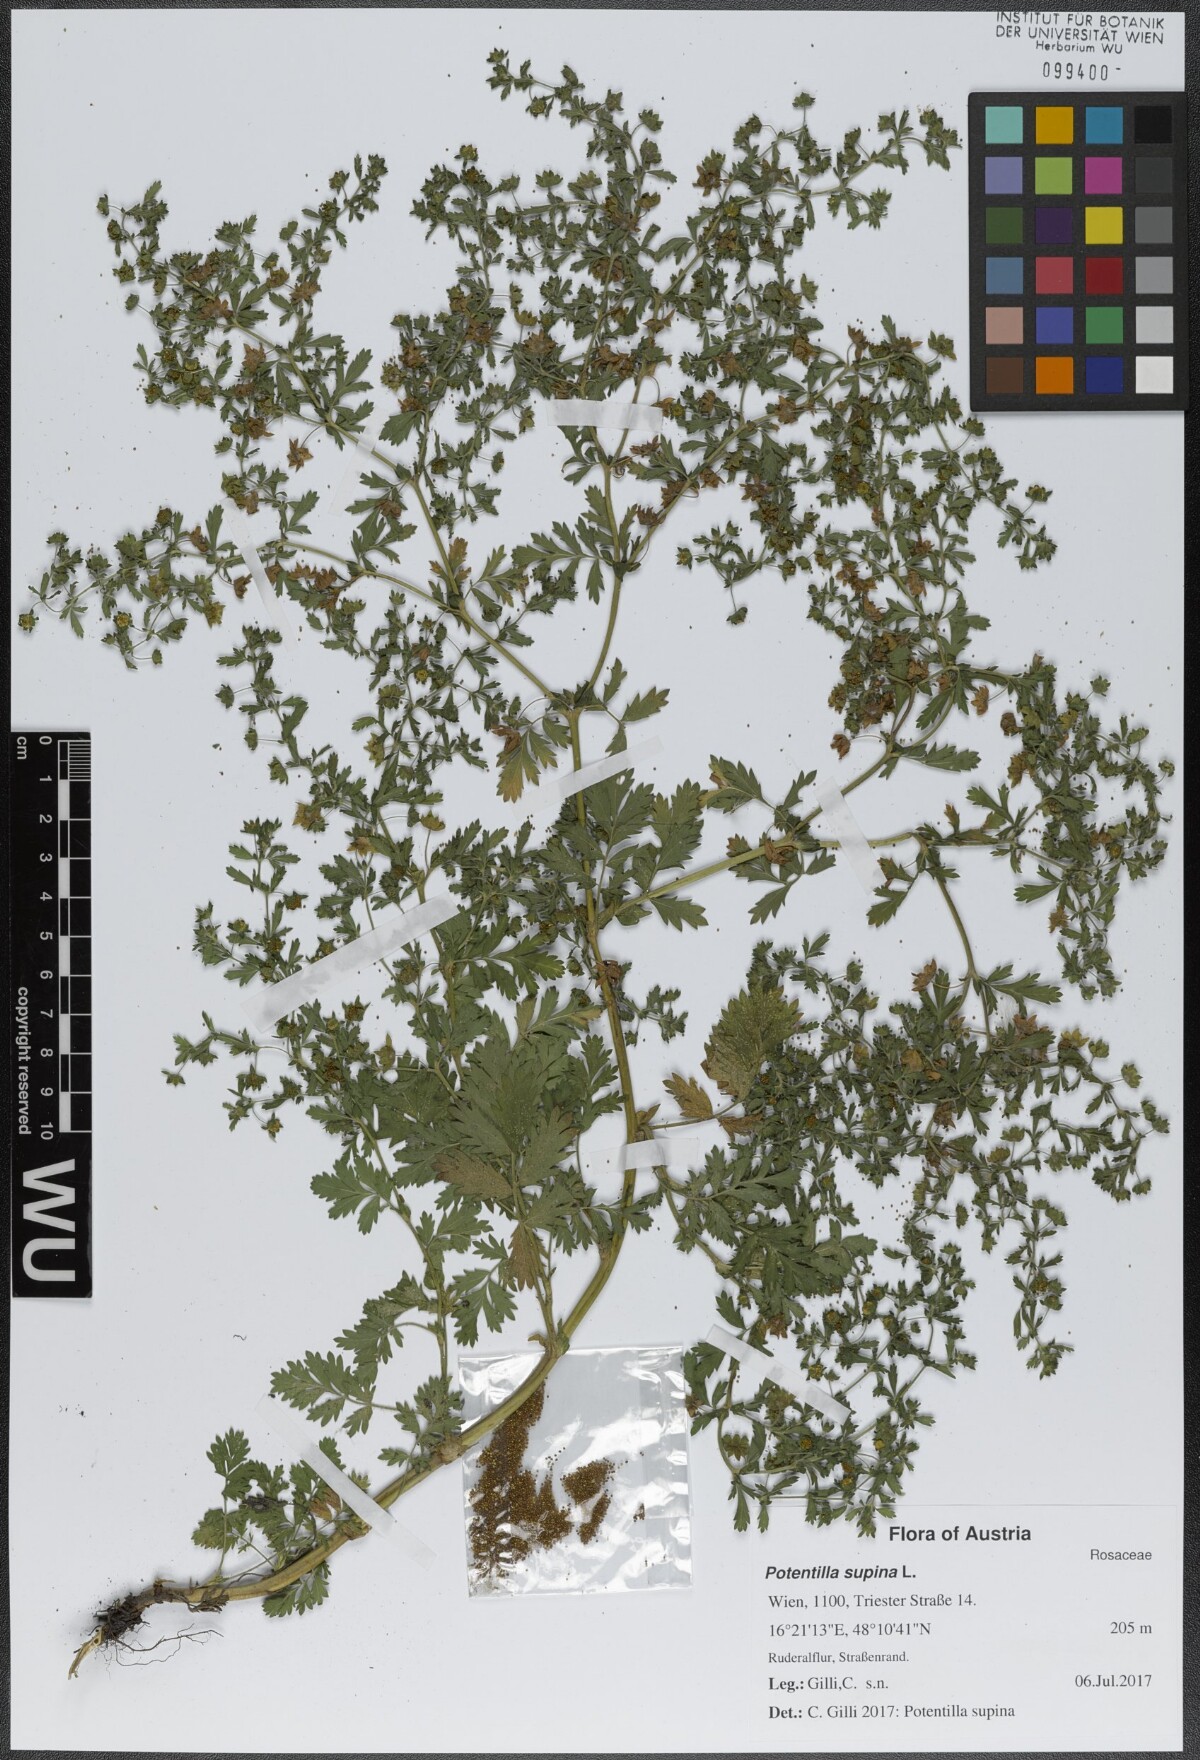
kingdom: Plantae
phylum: Tracheophyta
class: Magnoliopsida
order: Rosales
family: Rosaceae
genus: Potentilla
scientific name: Potentilla supina
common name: Prostrate cinquefoil
